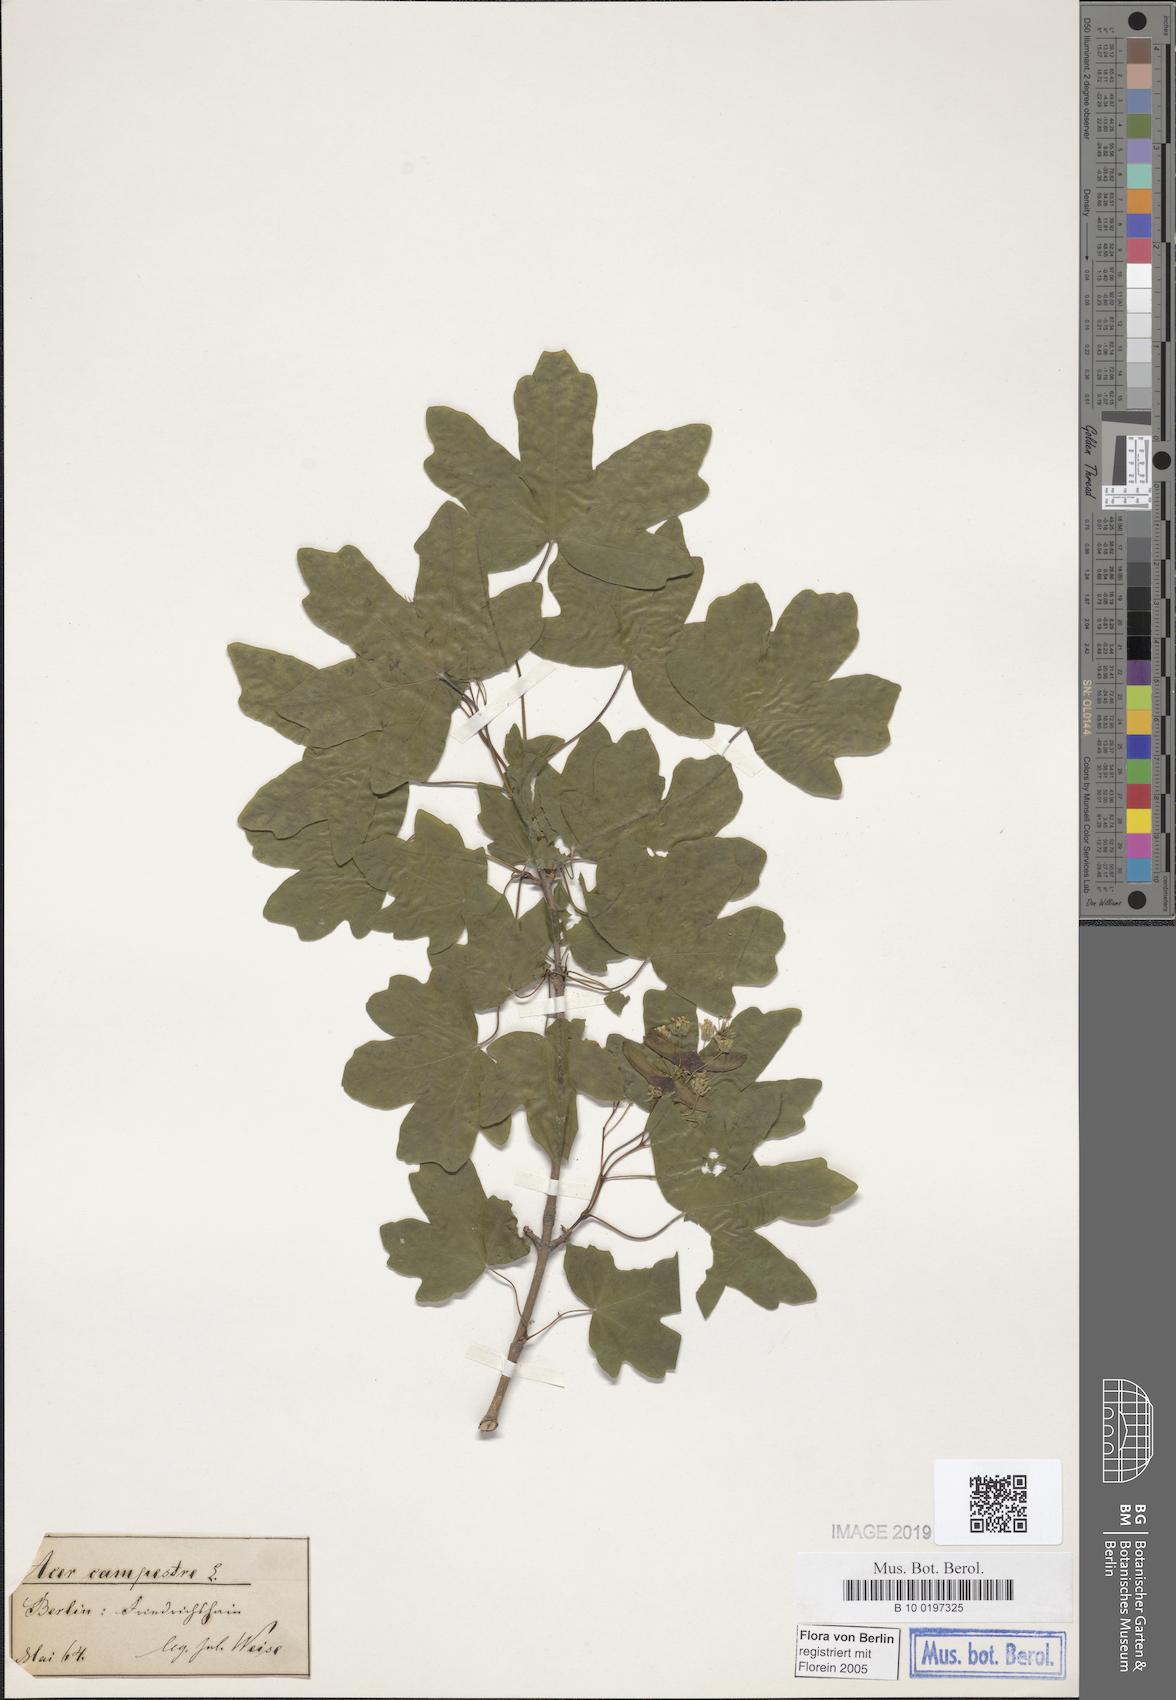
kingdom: Plantae
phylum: Tracheophyta
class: Magnoliopsida
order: Sapindales
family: Sapindaceae
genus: Acer
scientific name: Acer campestre
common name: Field maple
